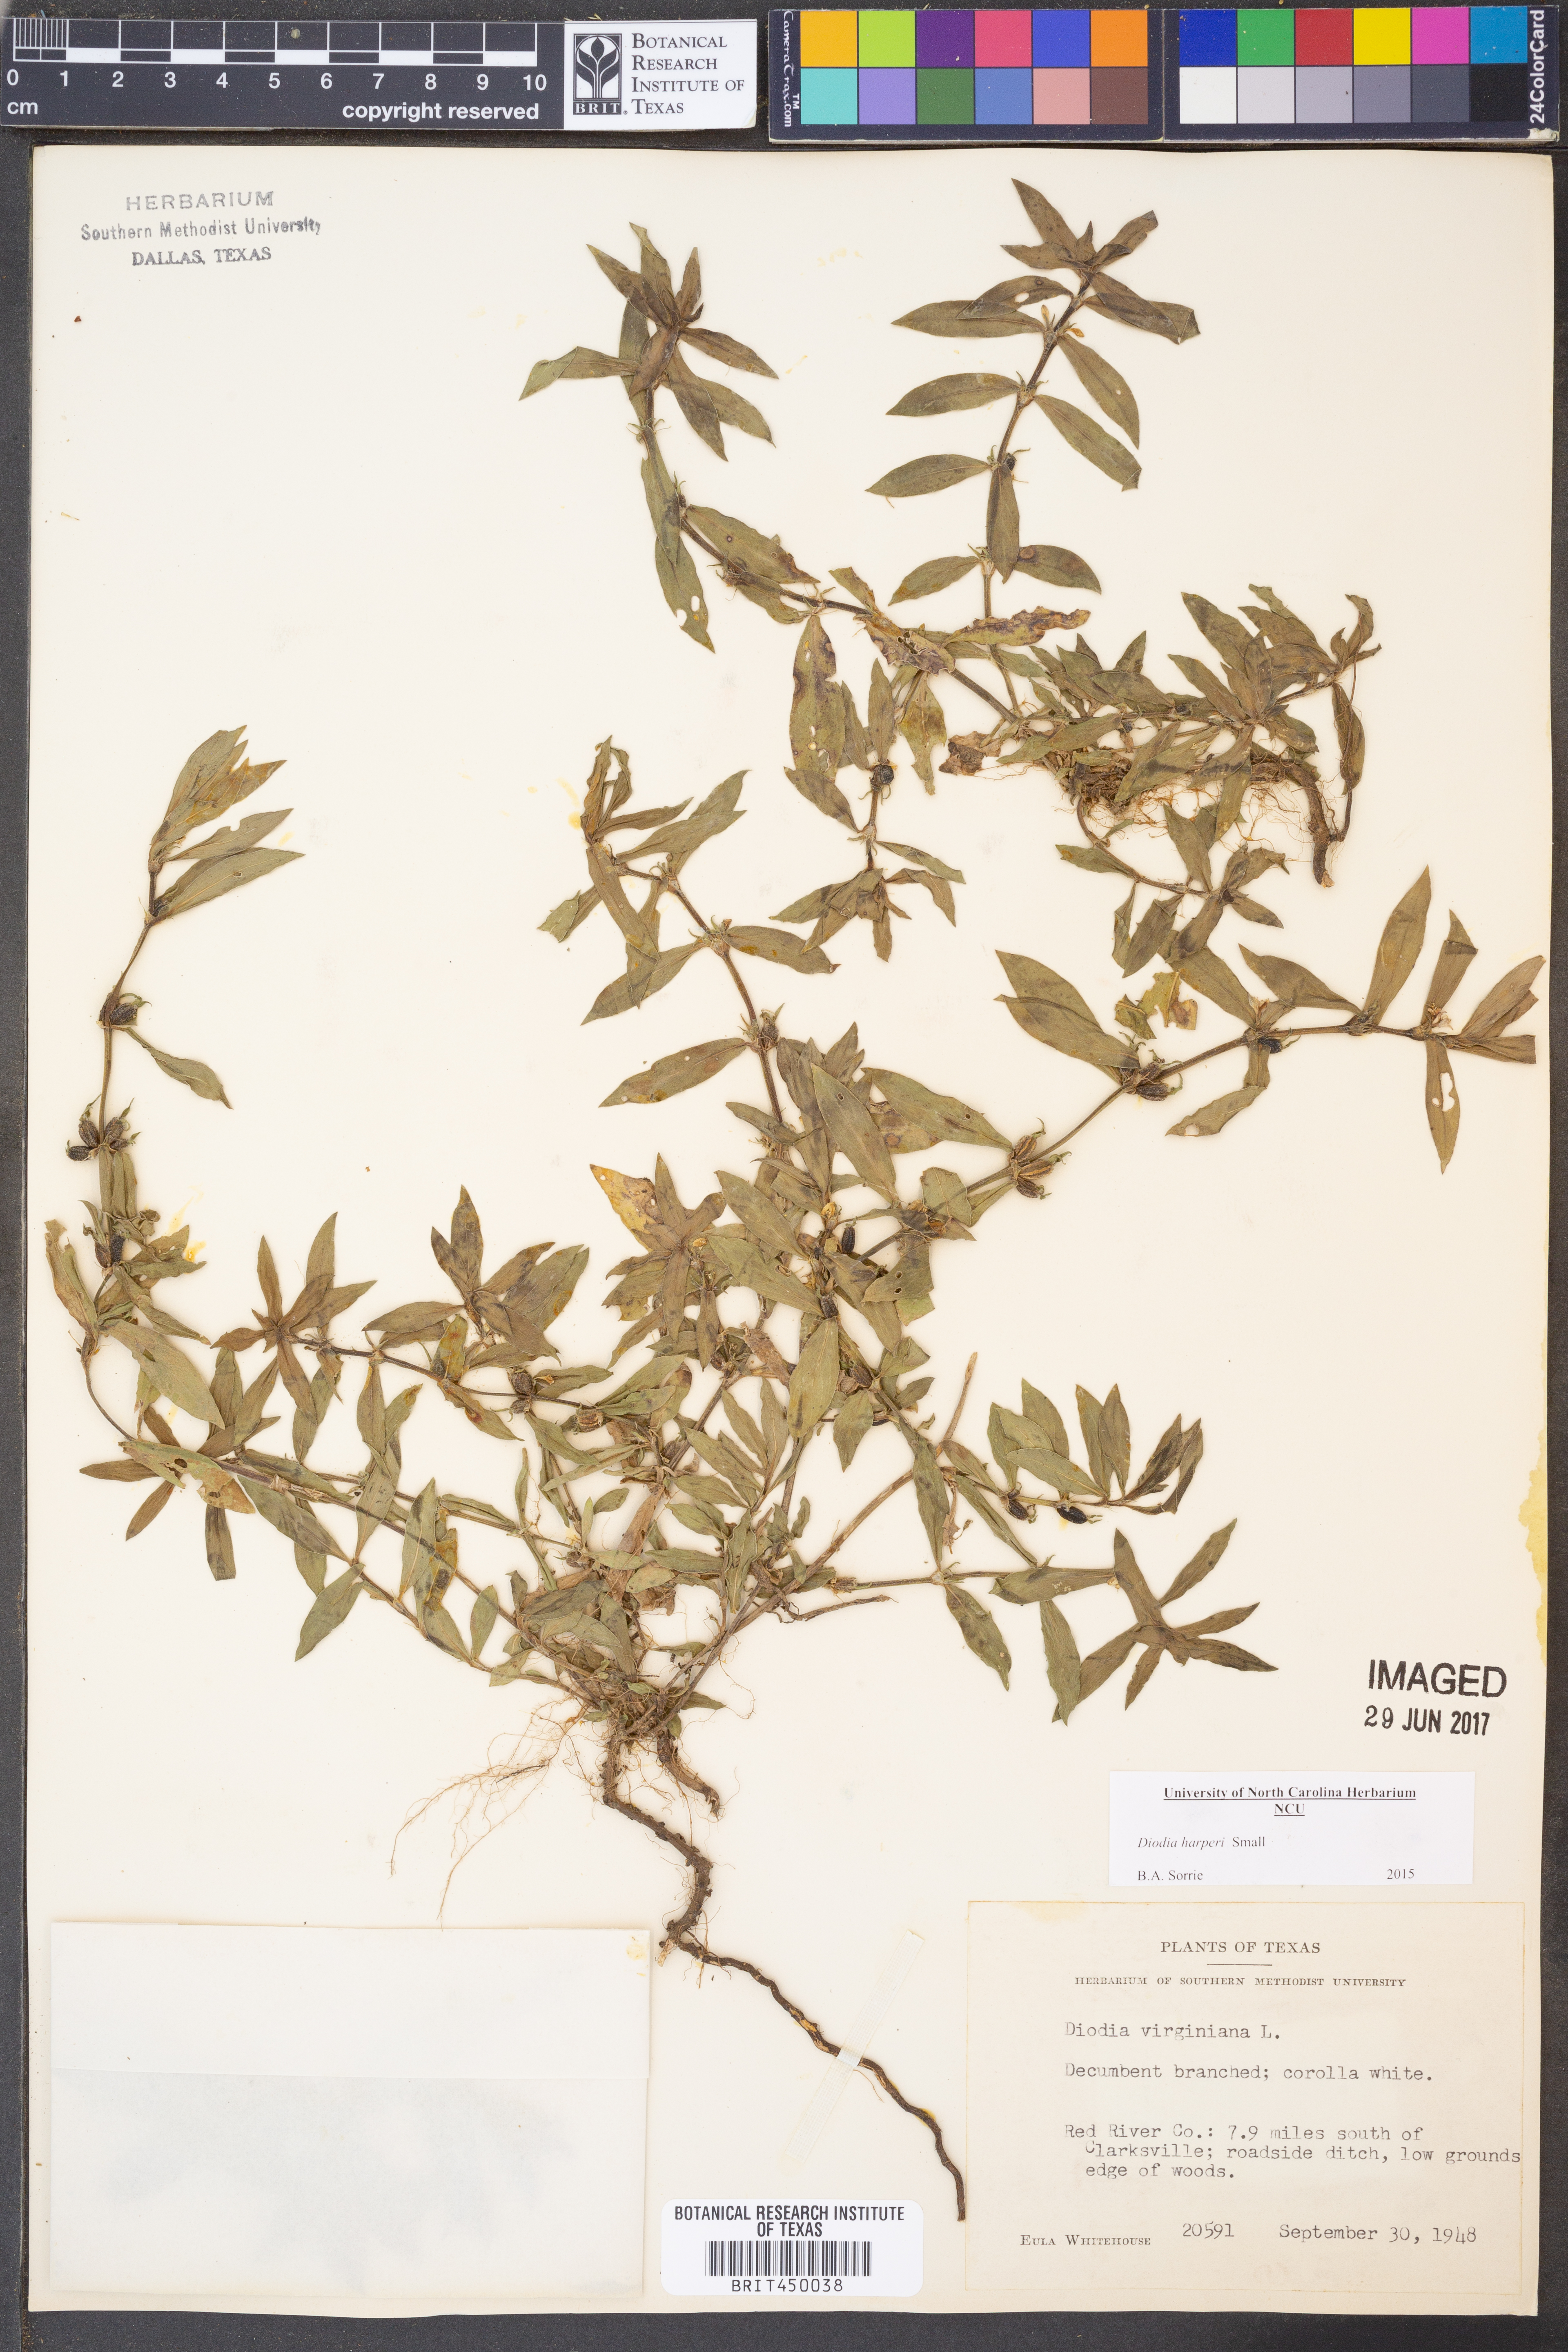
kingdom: Plantae
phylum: Tracheophyta
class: Magnoliopsida
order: Gentianales
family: Rubiaceae
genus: Diodia
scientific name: Diodia virginiana
